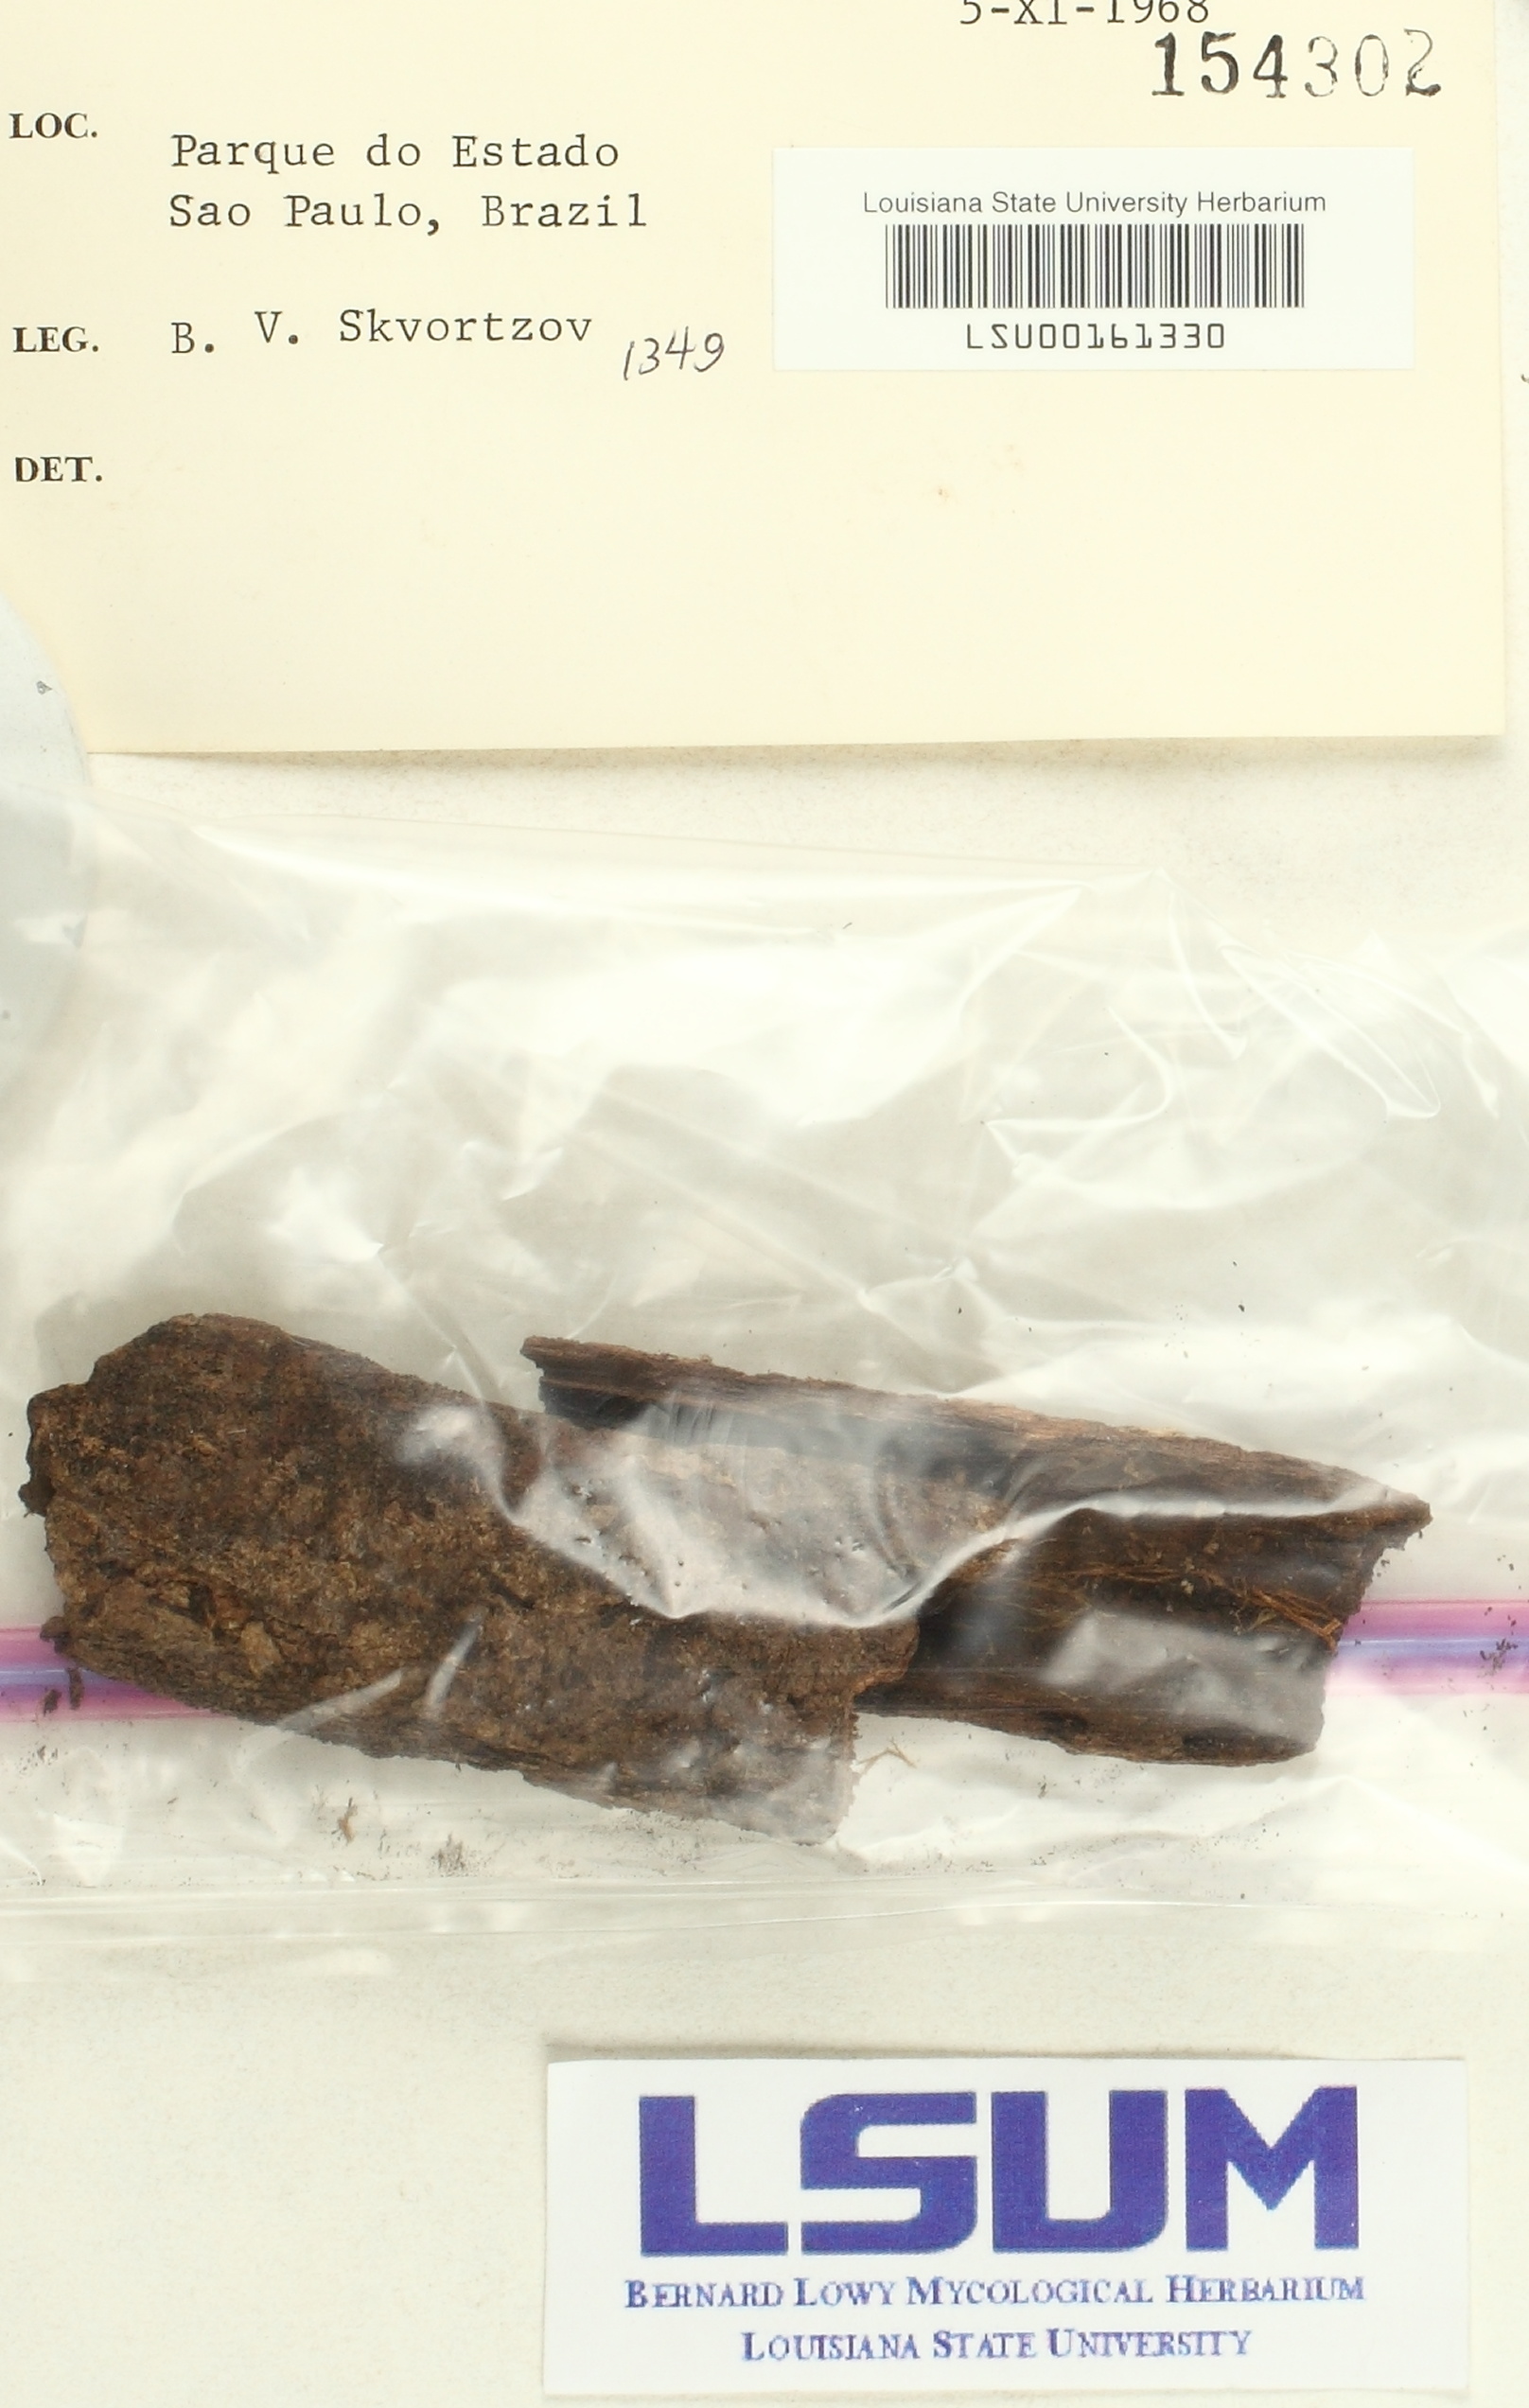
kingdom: Fungi
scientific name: Fungi
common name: Fungi
